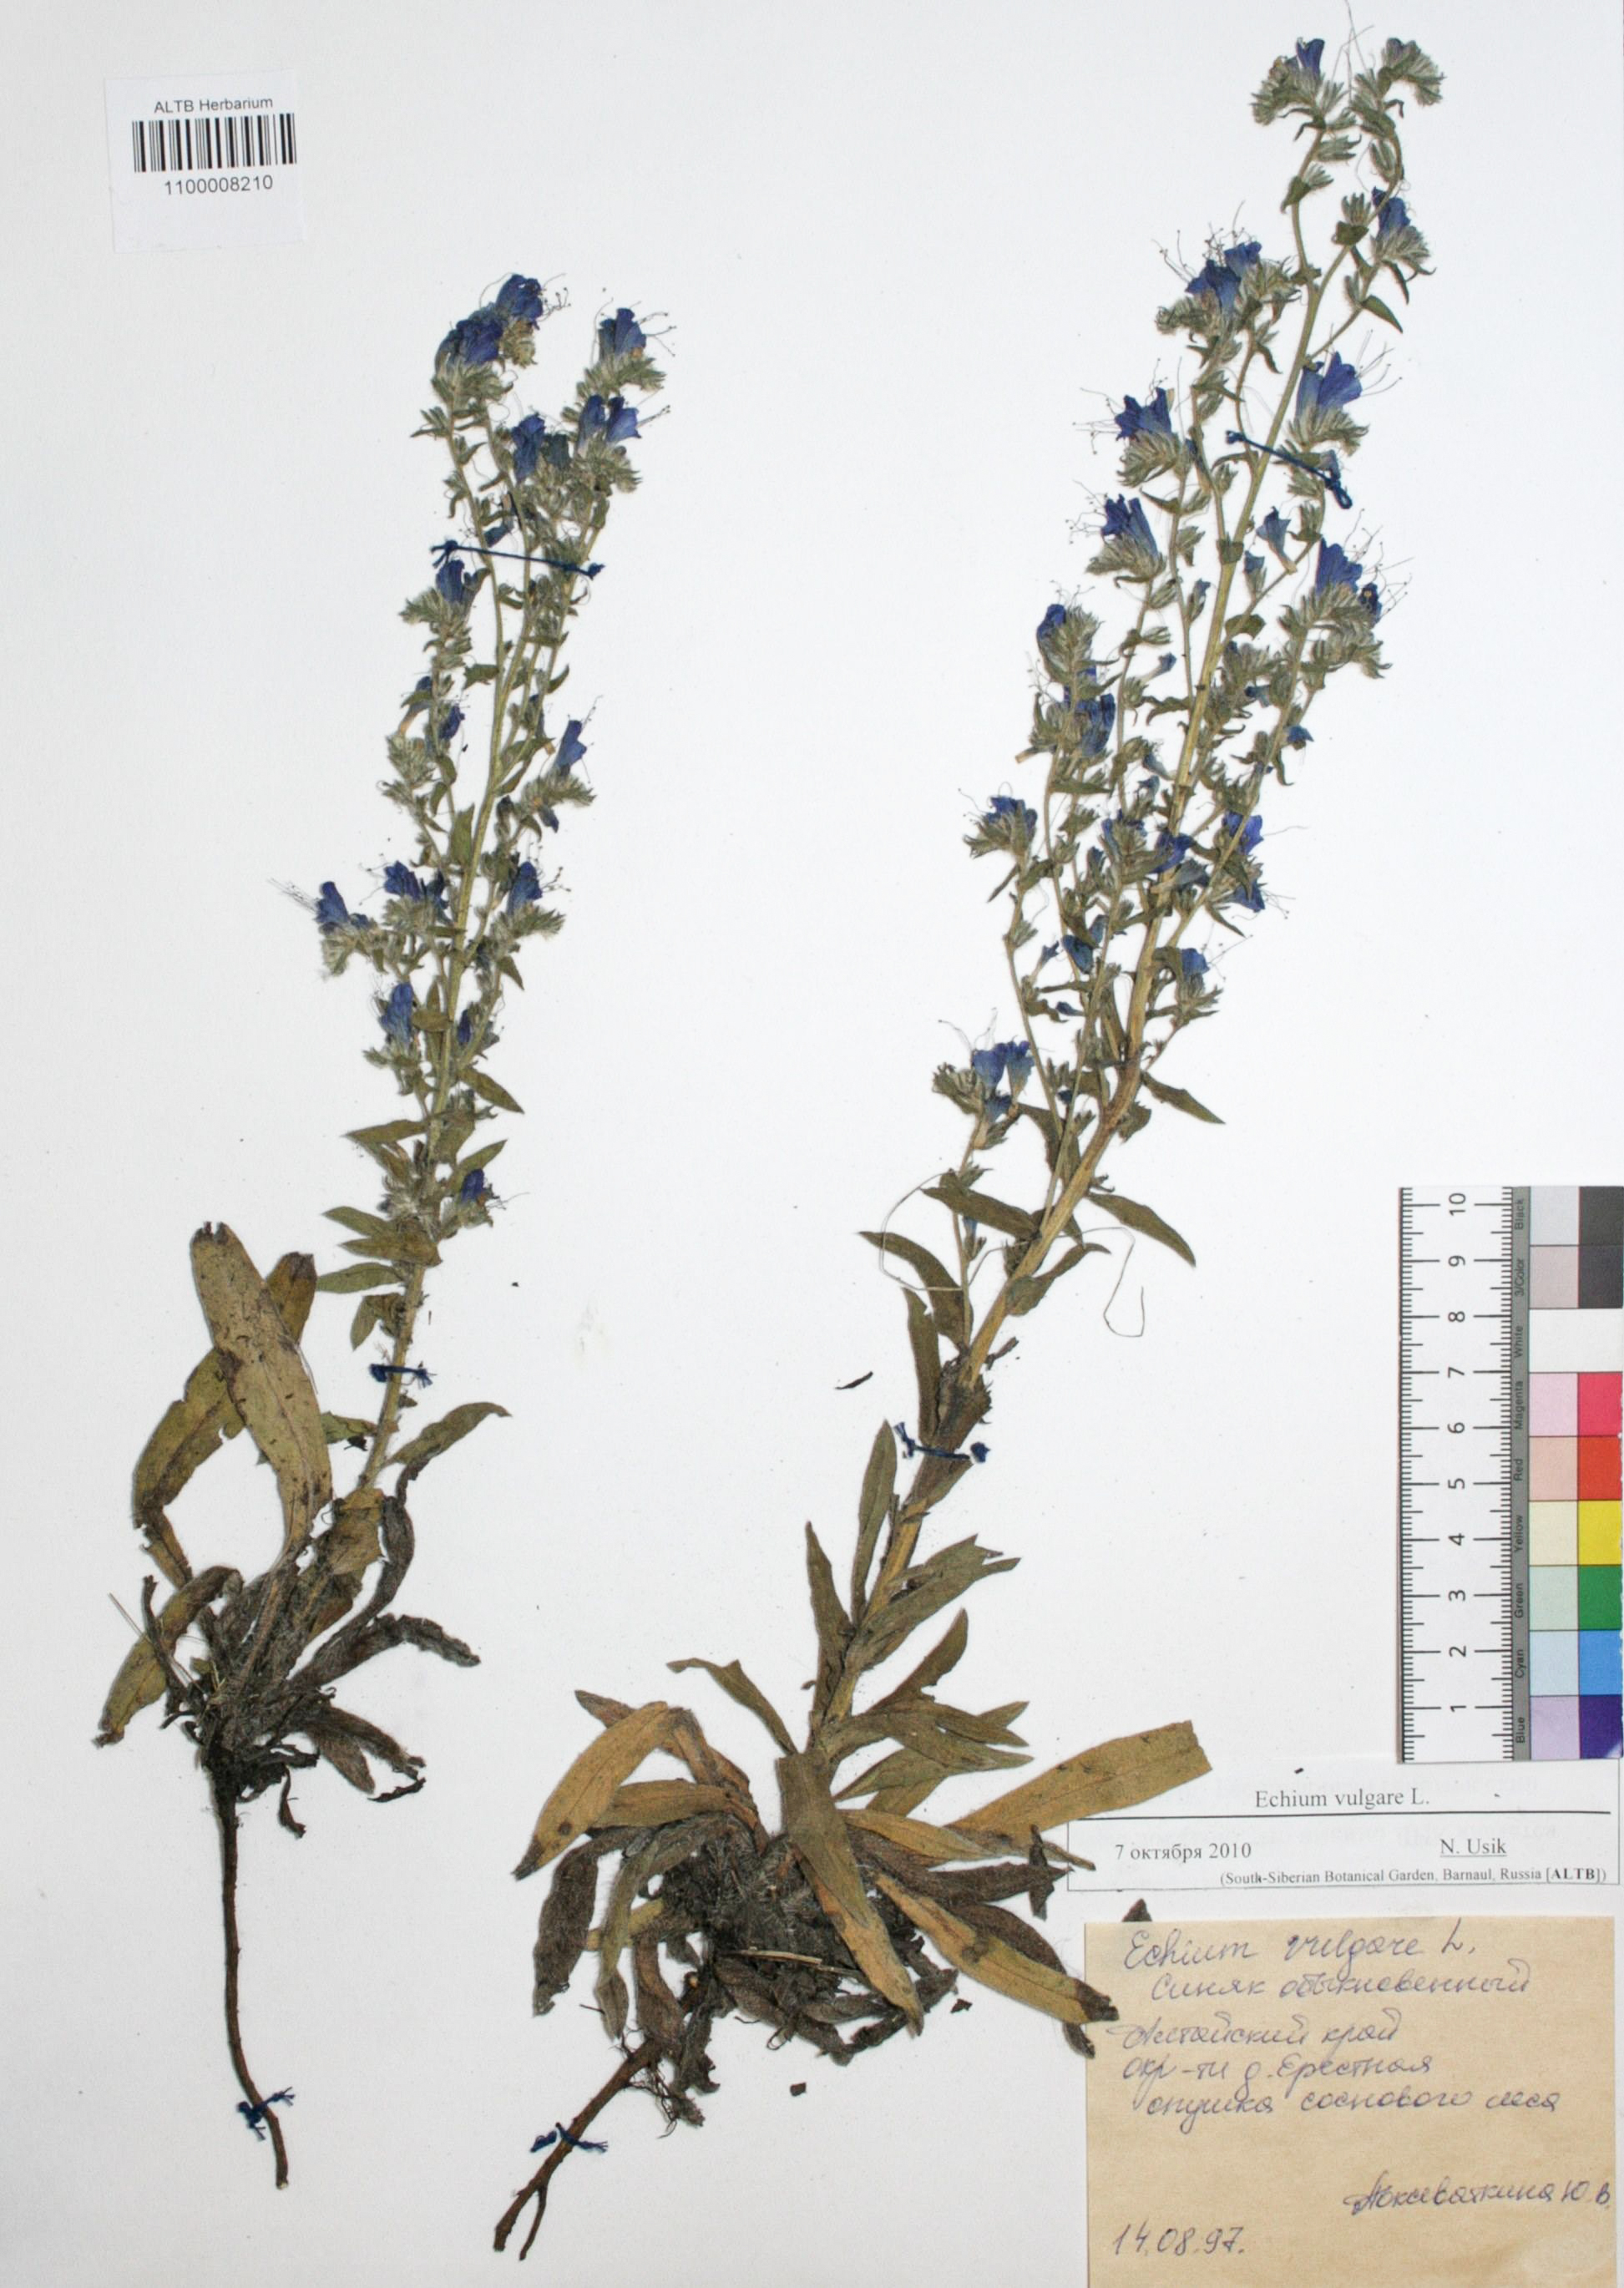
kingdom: Plantae
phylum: Tracheophyta
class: Magnoliopsida
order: Boraginales
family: Boraginaceae
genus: Echium
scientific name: Echium vulgare
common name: Common viper's bugloss
